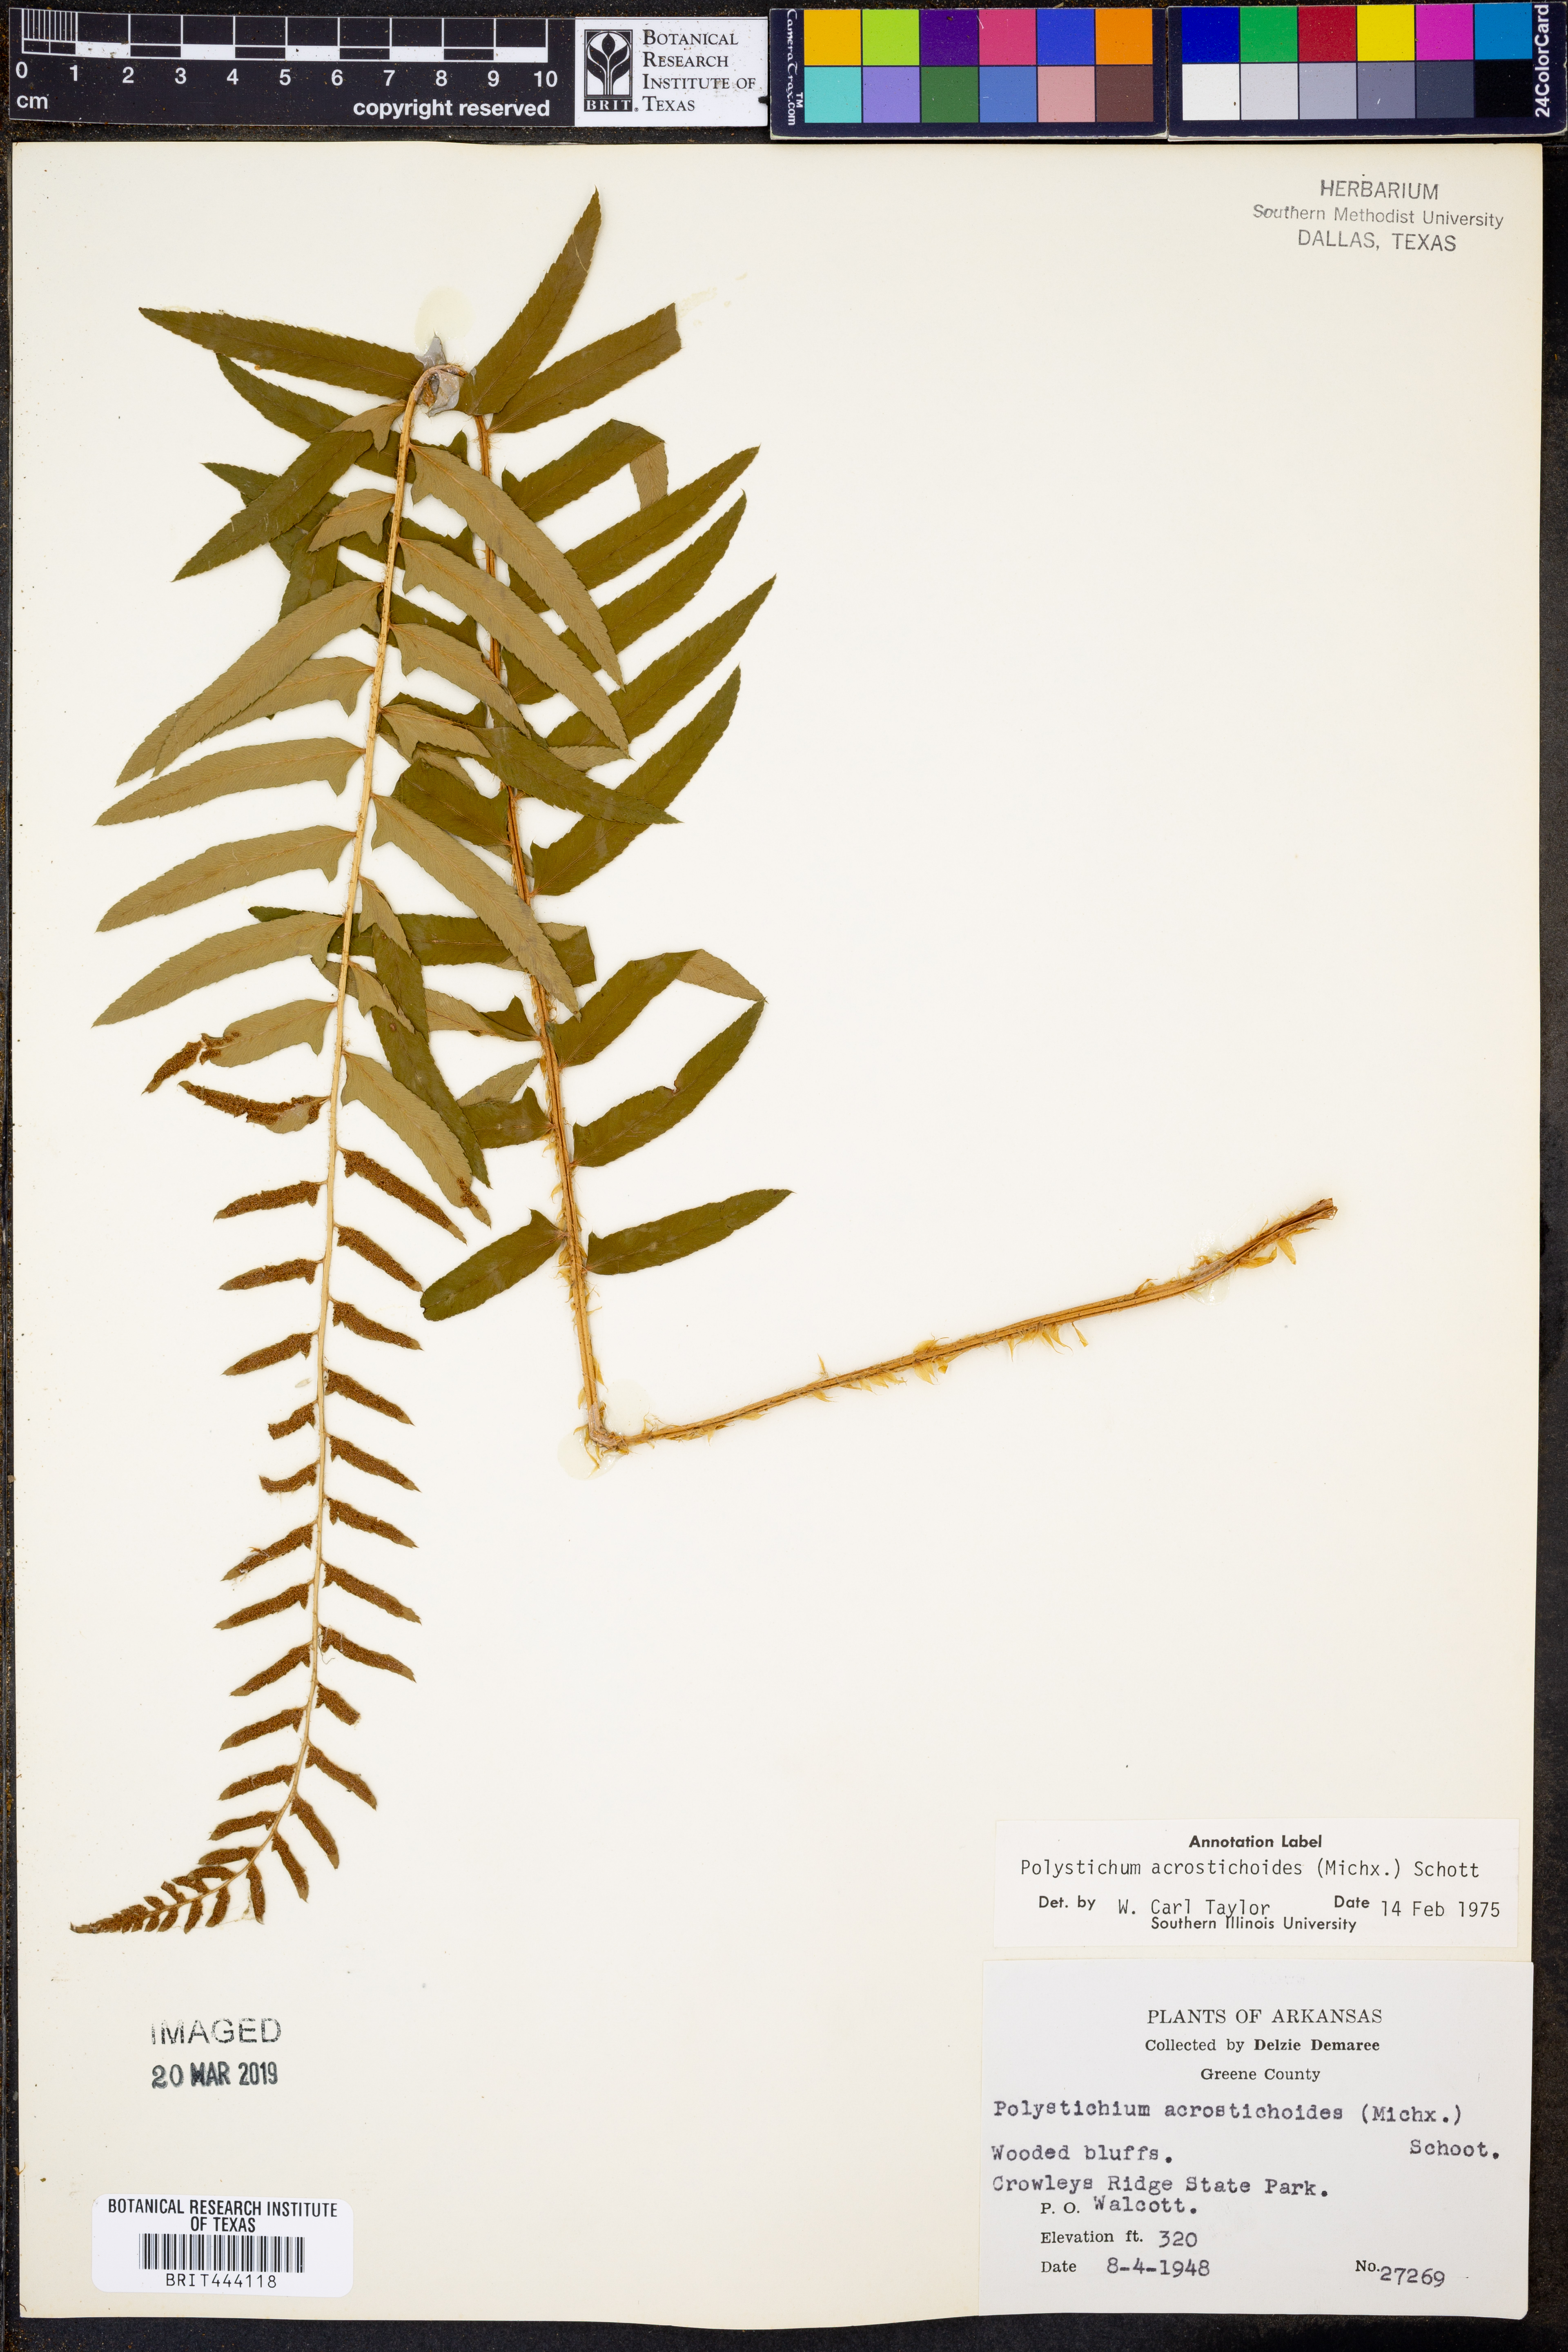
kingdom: Plantae
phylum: Tracheophyta
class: Polypodiopsida
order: Polypodiales
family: Dryopteridaceae
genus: Polystichum
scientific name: Polystichum acrostichoides
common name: Christmas fern
